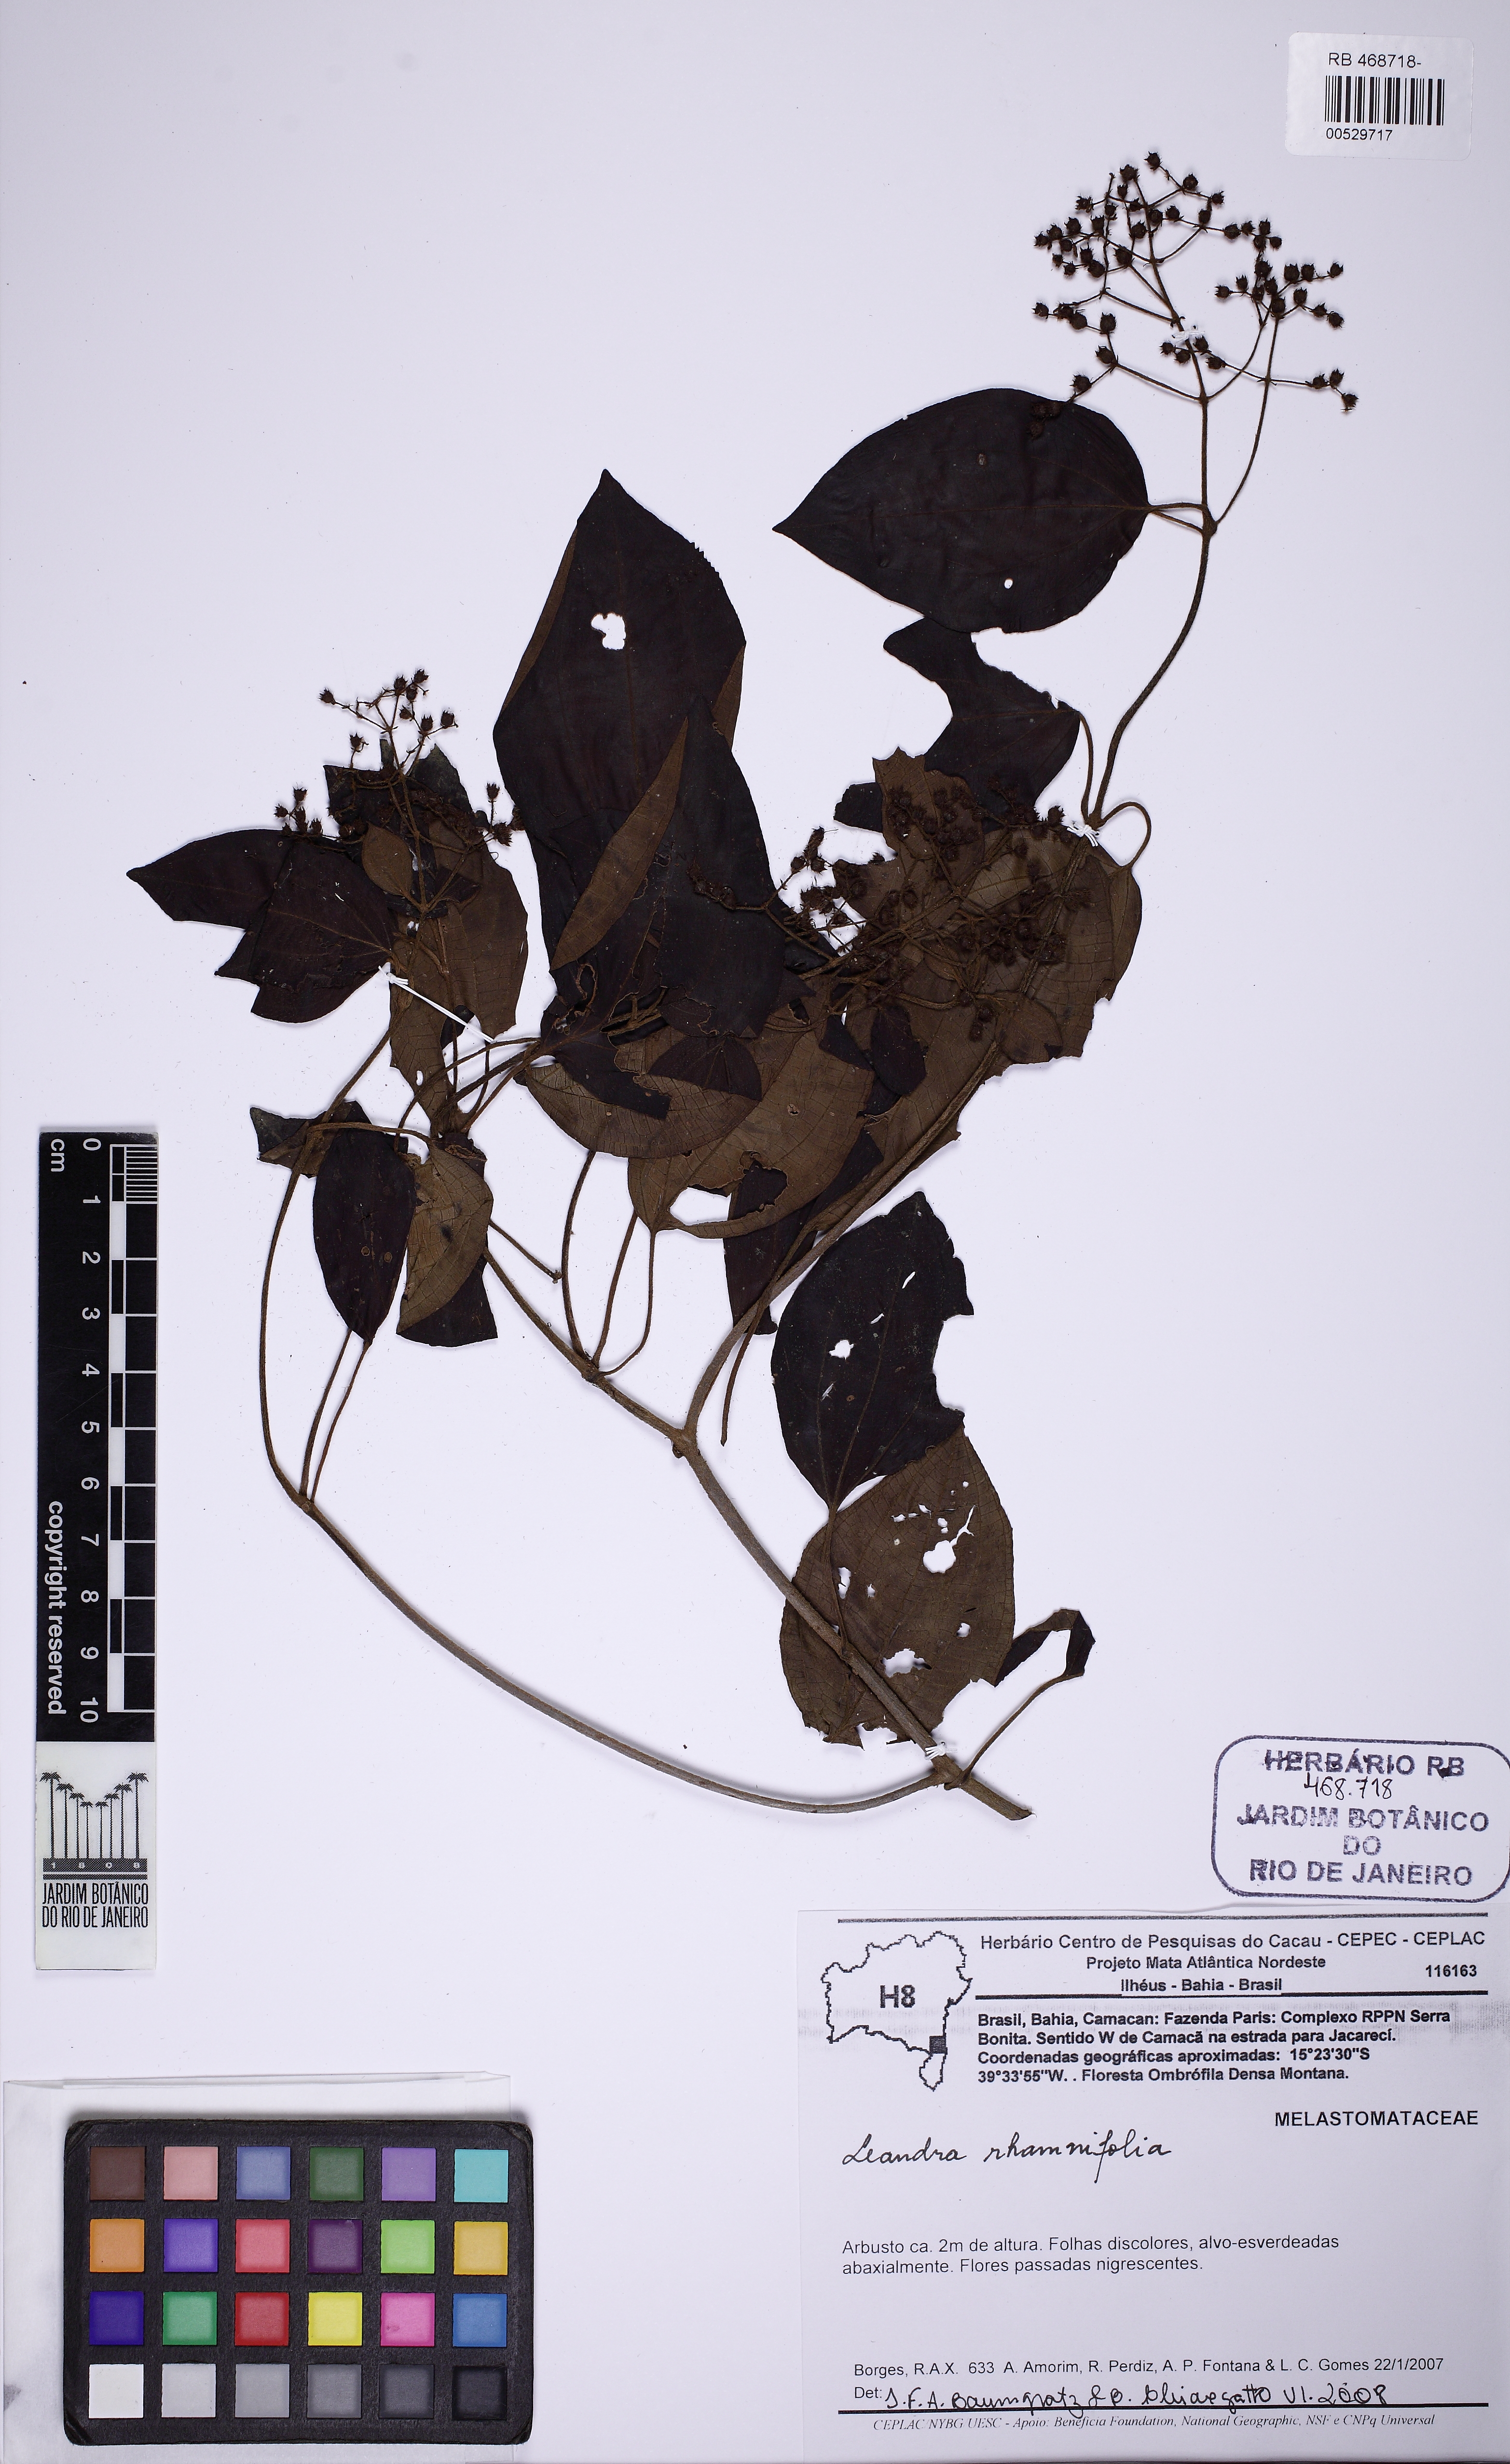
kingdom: Plantae
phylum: Tracheophyta
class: Magnoliopsida
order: Myrtales
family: Melastomataceae
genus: Miconia
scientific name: Miconia rhamnifolia
